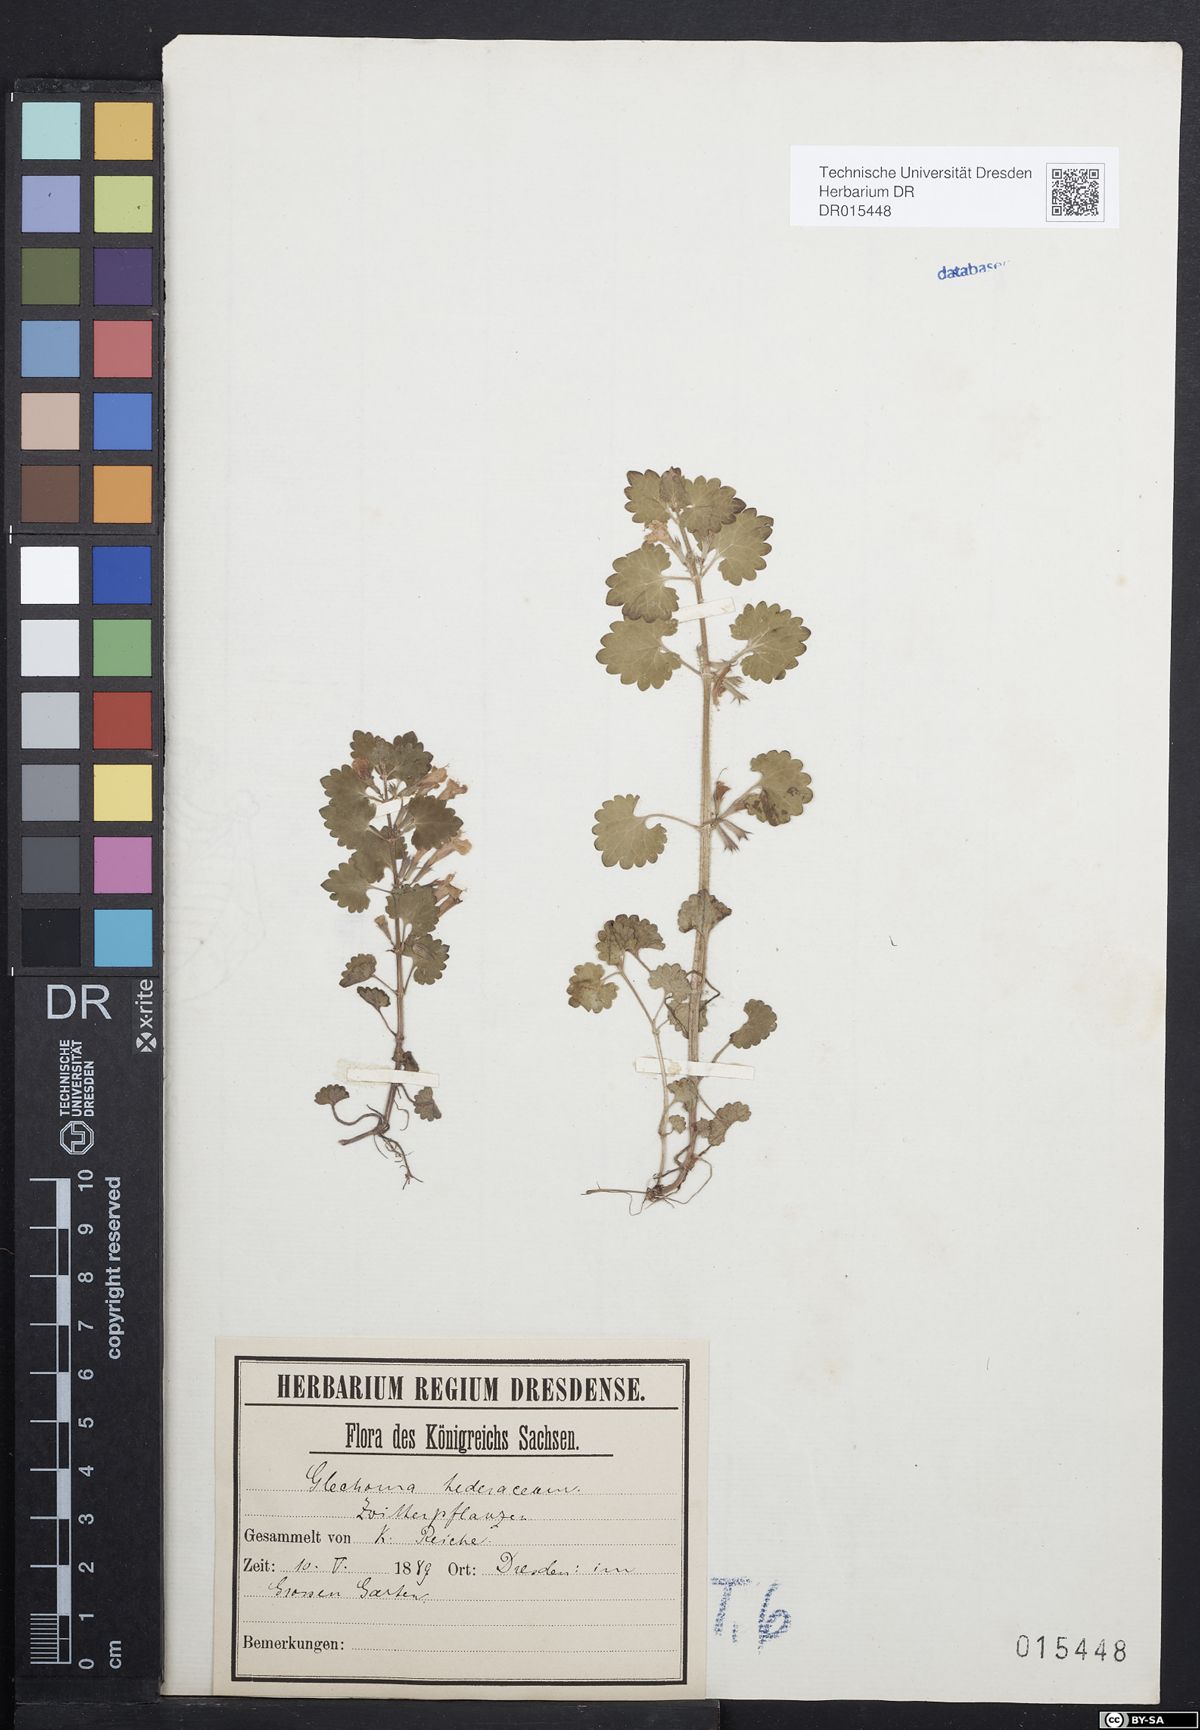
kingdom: Plantae
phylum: Tracheophyta
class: Magnoliopsida
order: Lamiales
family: Lamiaceae
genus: Glechoma
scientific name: Glechoma hederacea
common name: Ground ivy
